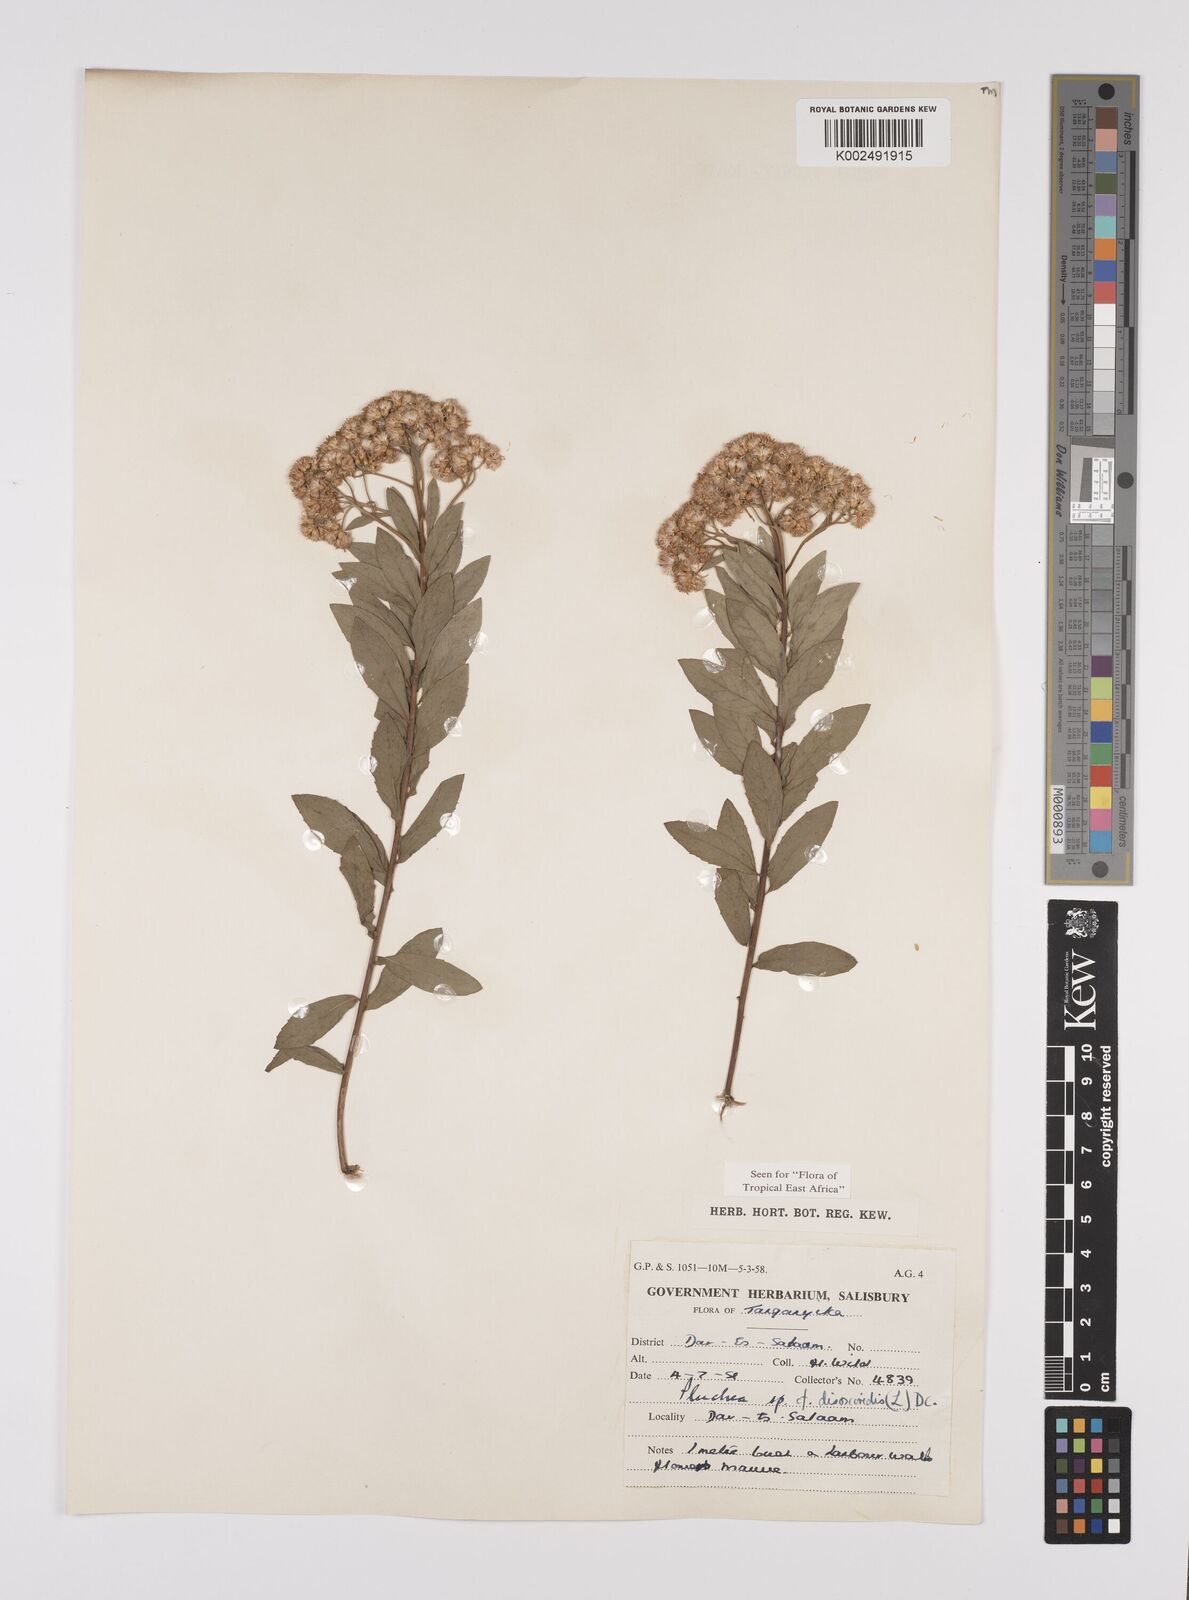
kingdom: Plantae
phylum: Tracheophyta
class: Magnoliopsida
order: Asterales
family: Asteraceae
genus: Pluchea
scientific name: Pluchea dioscoridis
